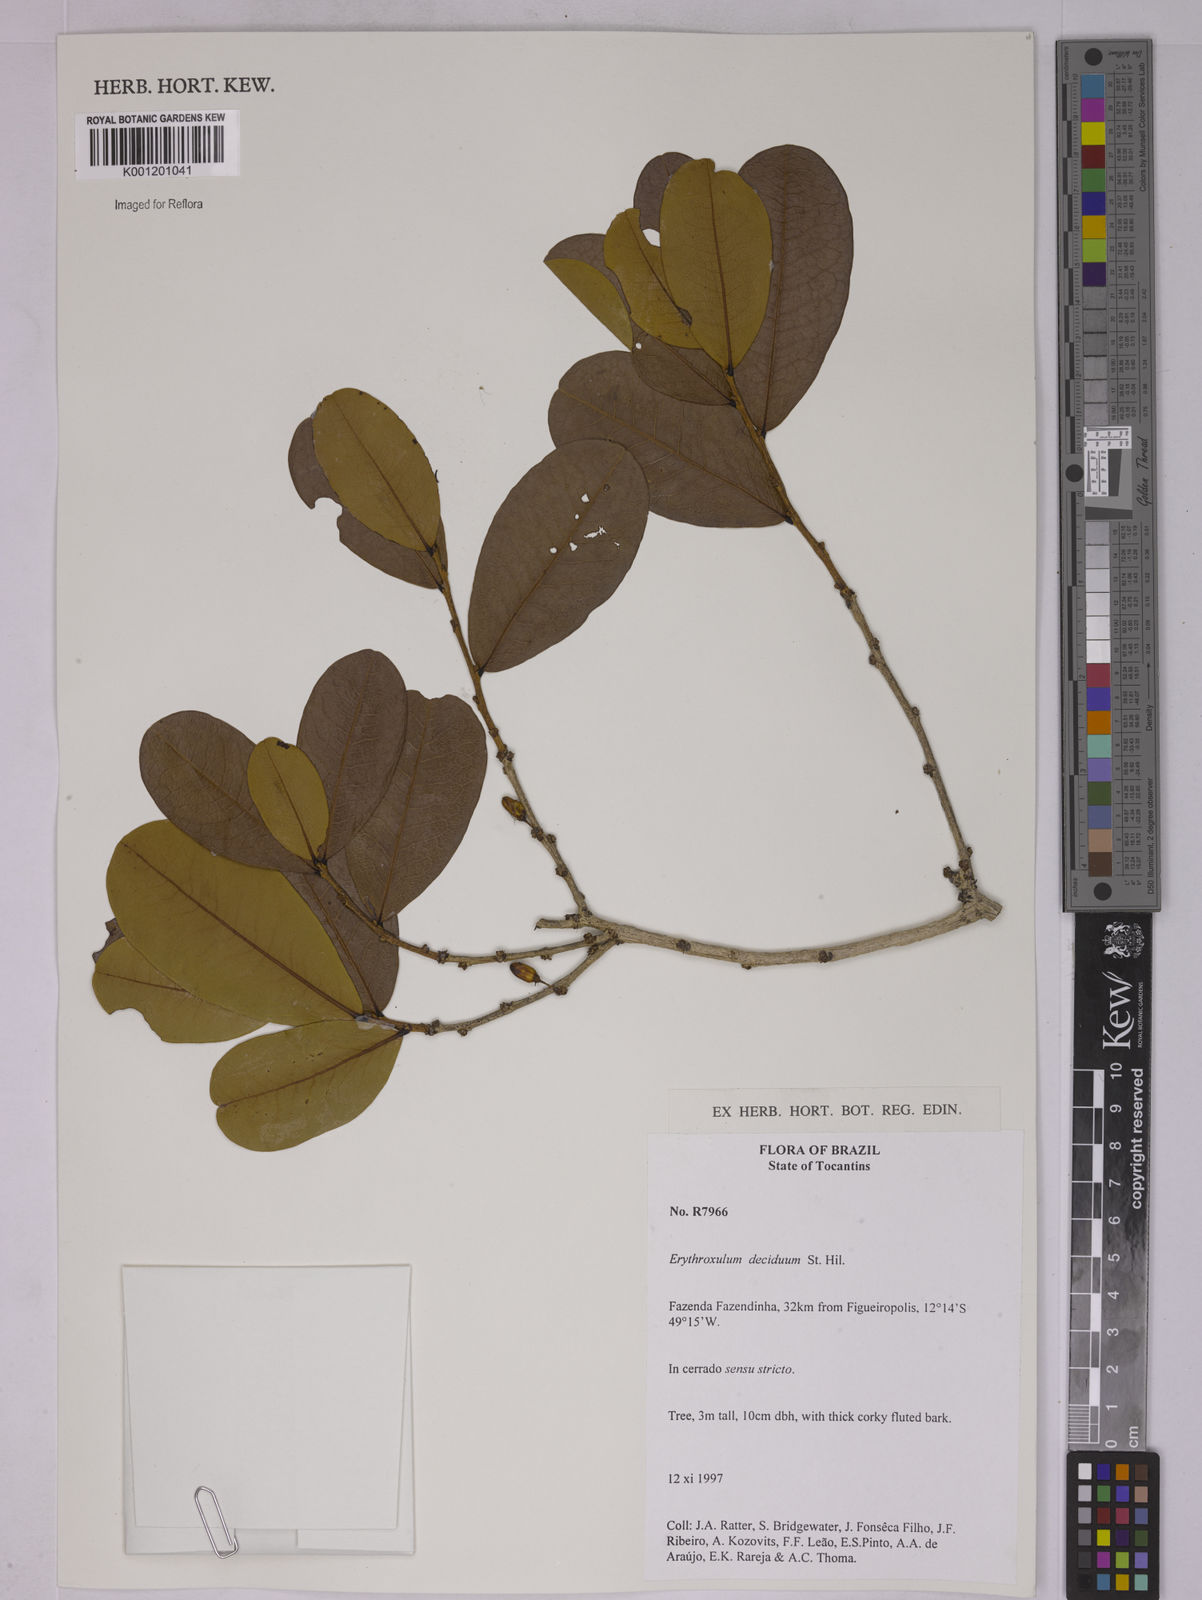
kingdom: Plantae
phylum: Tracheophyta
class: Magnoliopsida
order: Malpighiales
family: Erythroxylaceae
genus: Erythroxylum
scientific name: Erythroxylum deciduum
